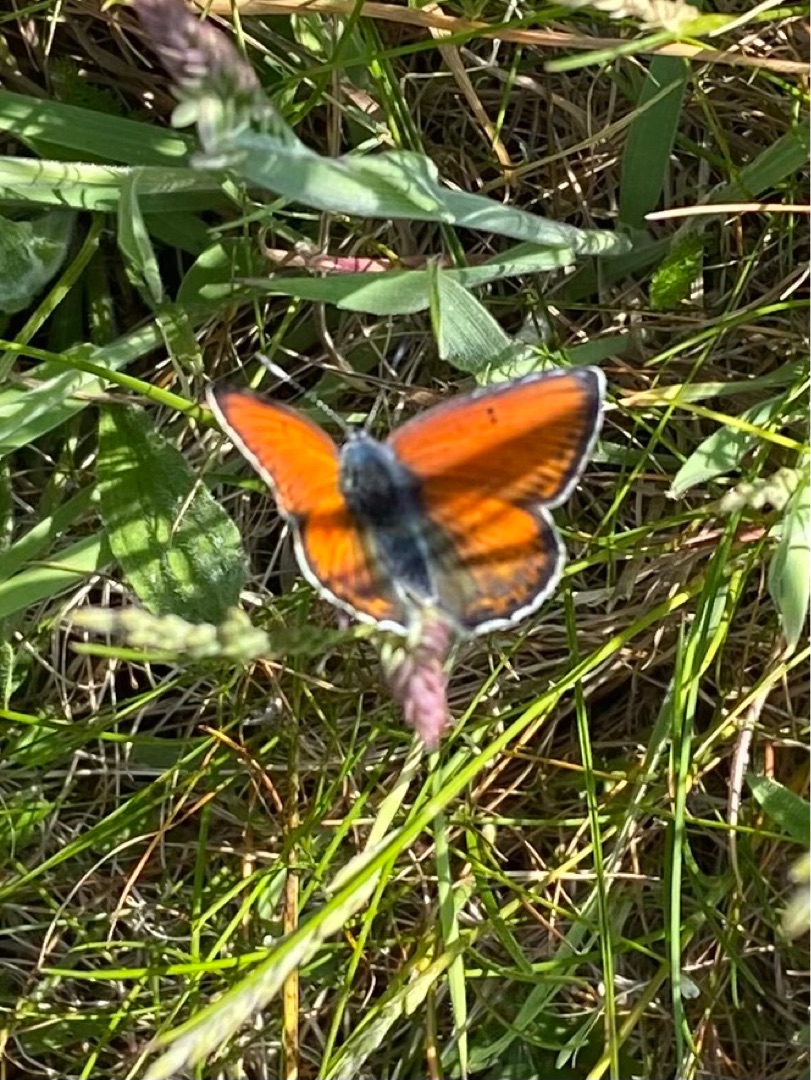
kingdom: Animalia
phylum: Arthropoda
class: Insecta
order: Lepidoptera
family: Lycaenidae
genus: Palaeochrysophanus
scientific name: Palaeochrysophanus hippothoe
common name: Violetrandet ildfugl
